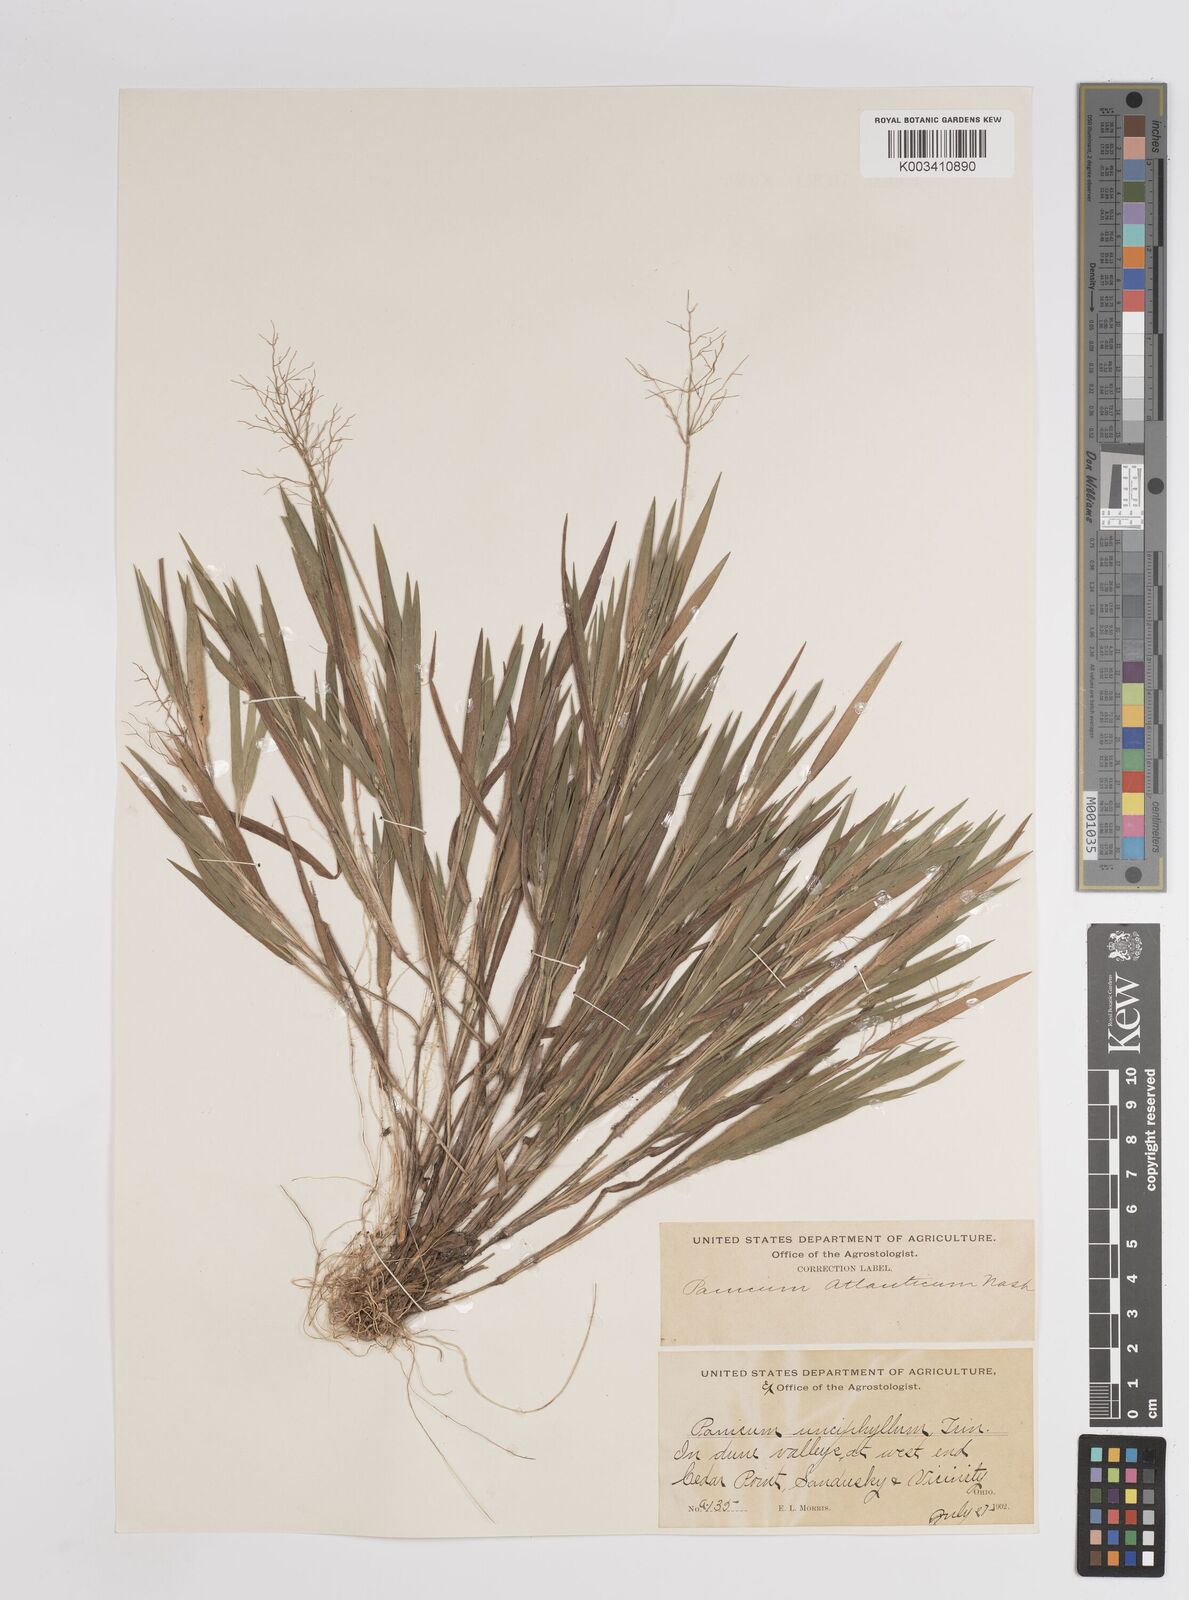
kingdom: Plantae
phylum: Tracheophyta
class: Liliopsida
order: Poales
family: Poaceae
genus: Dichanthelium
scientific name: Dichanthelium villosissimum
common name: White-haired panicgrass
